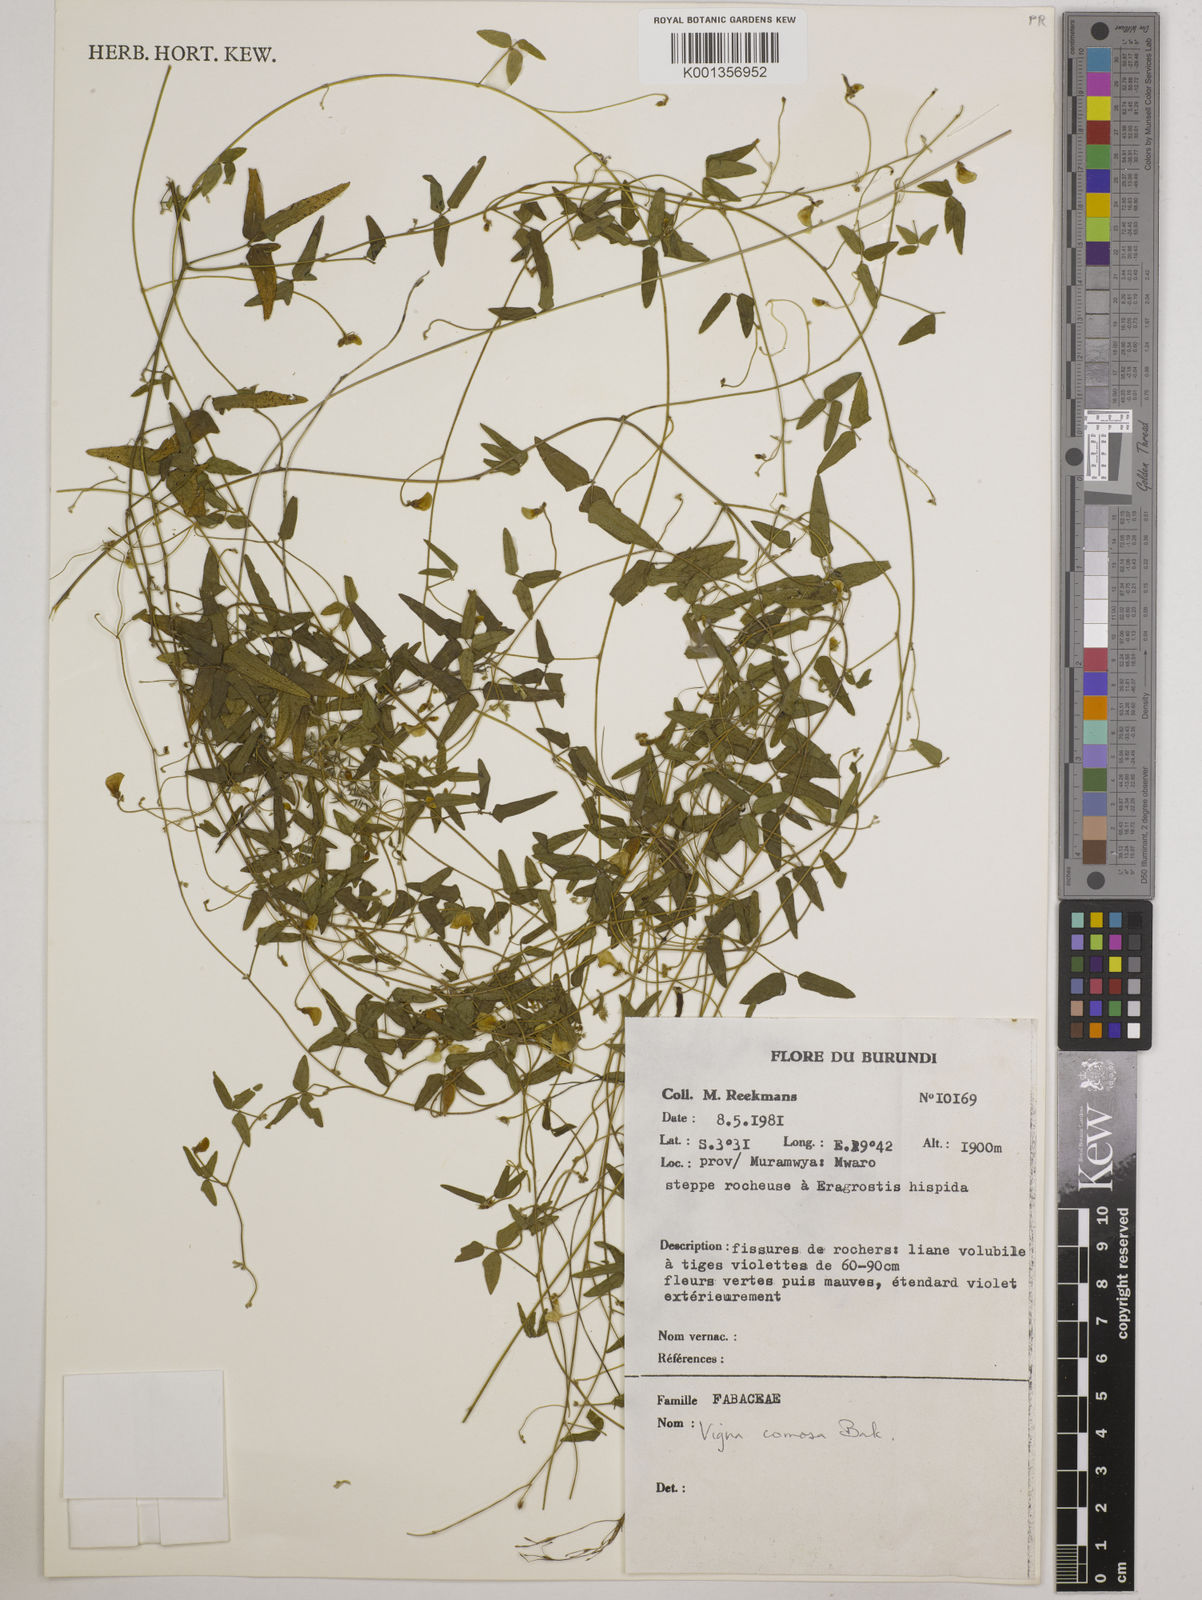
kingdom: Plantae
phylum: Tracheophyta
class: Magnoliopsida
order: Fabales
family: Fabaceae
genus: Vigna
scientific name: Vigna comosa
